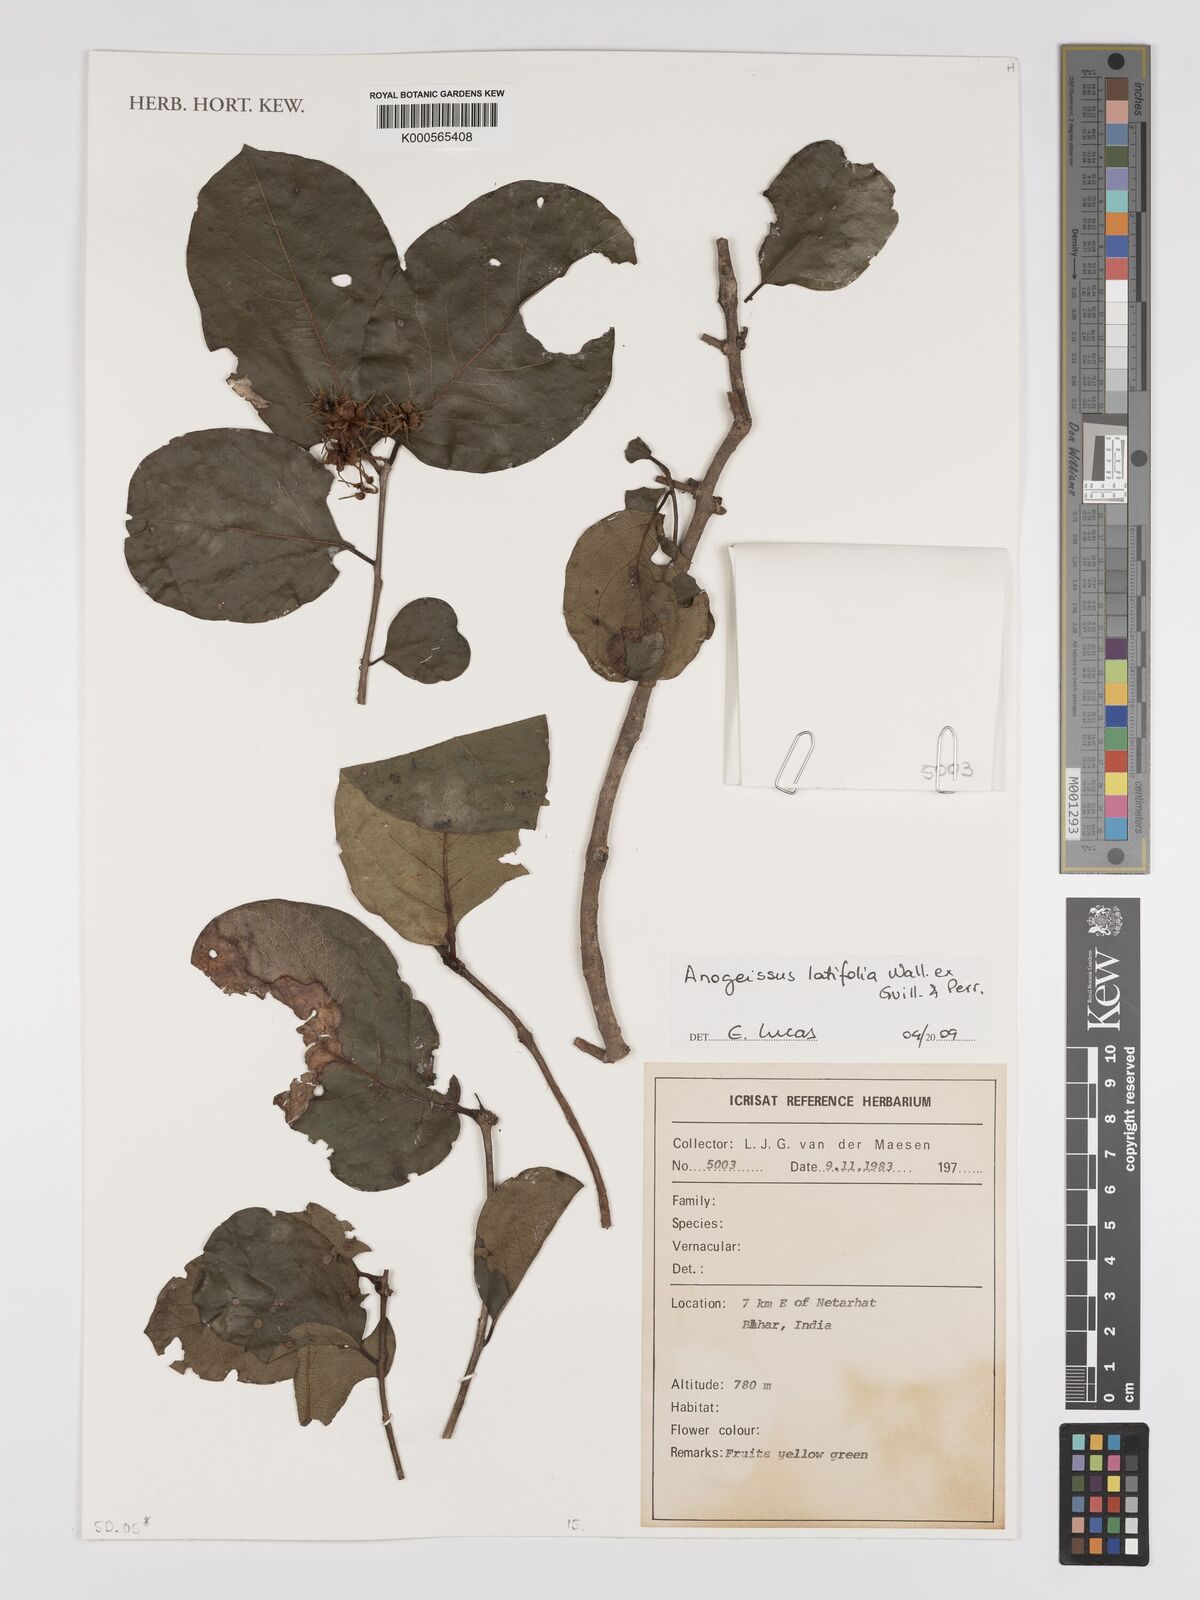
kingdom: Plantae
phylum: Tracheophyta
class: Magnoliopsida
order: Myrtales
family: Combretaceae
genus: Terminalia
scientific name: Terminalia anogeissiana
